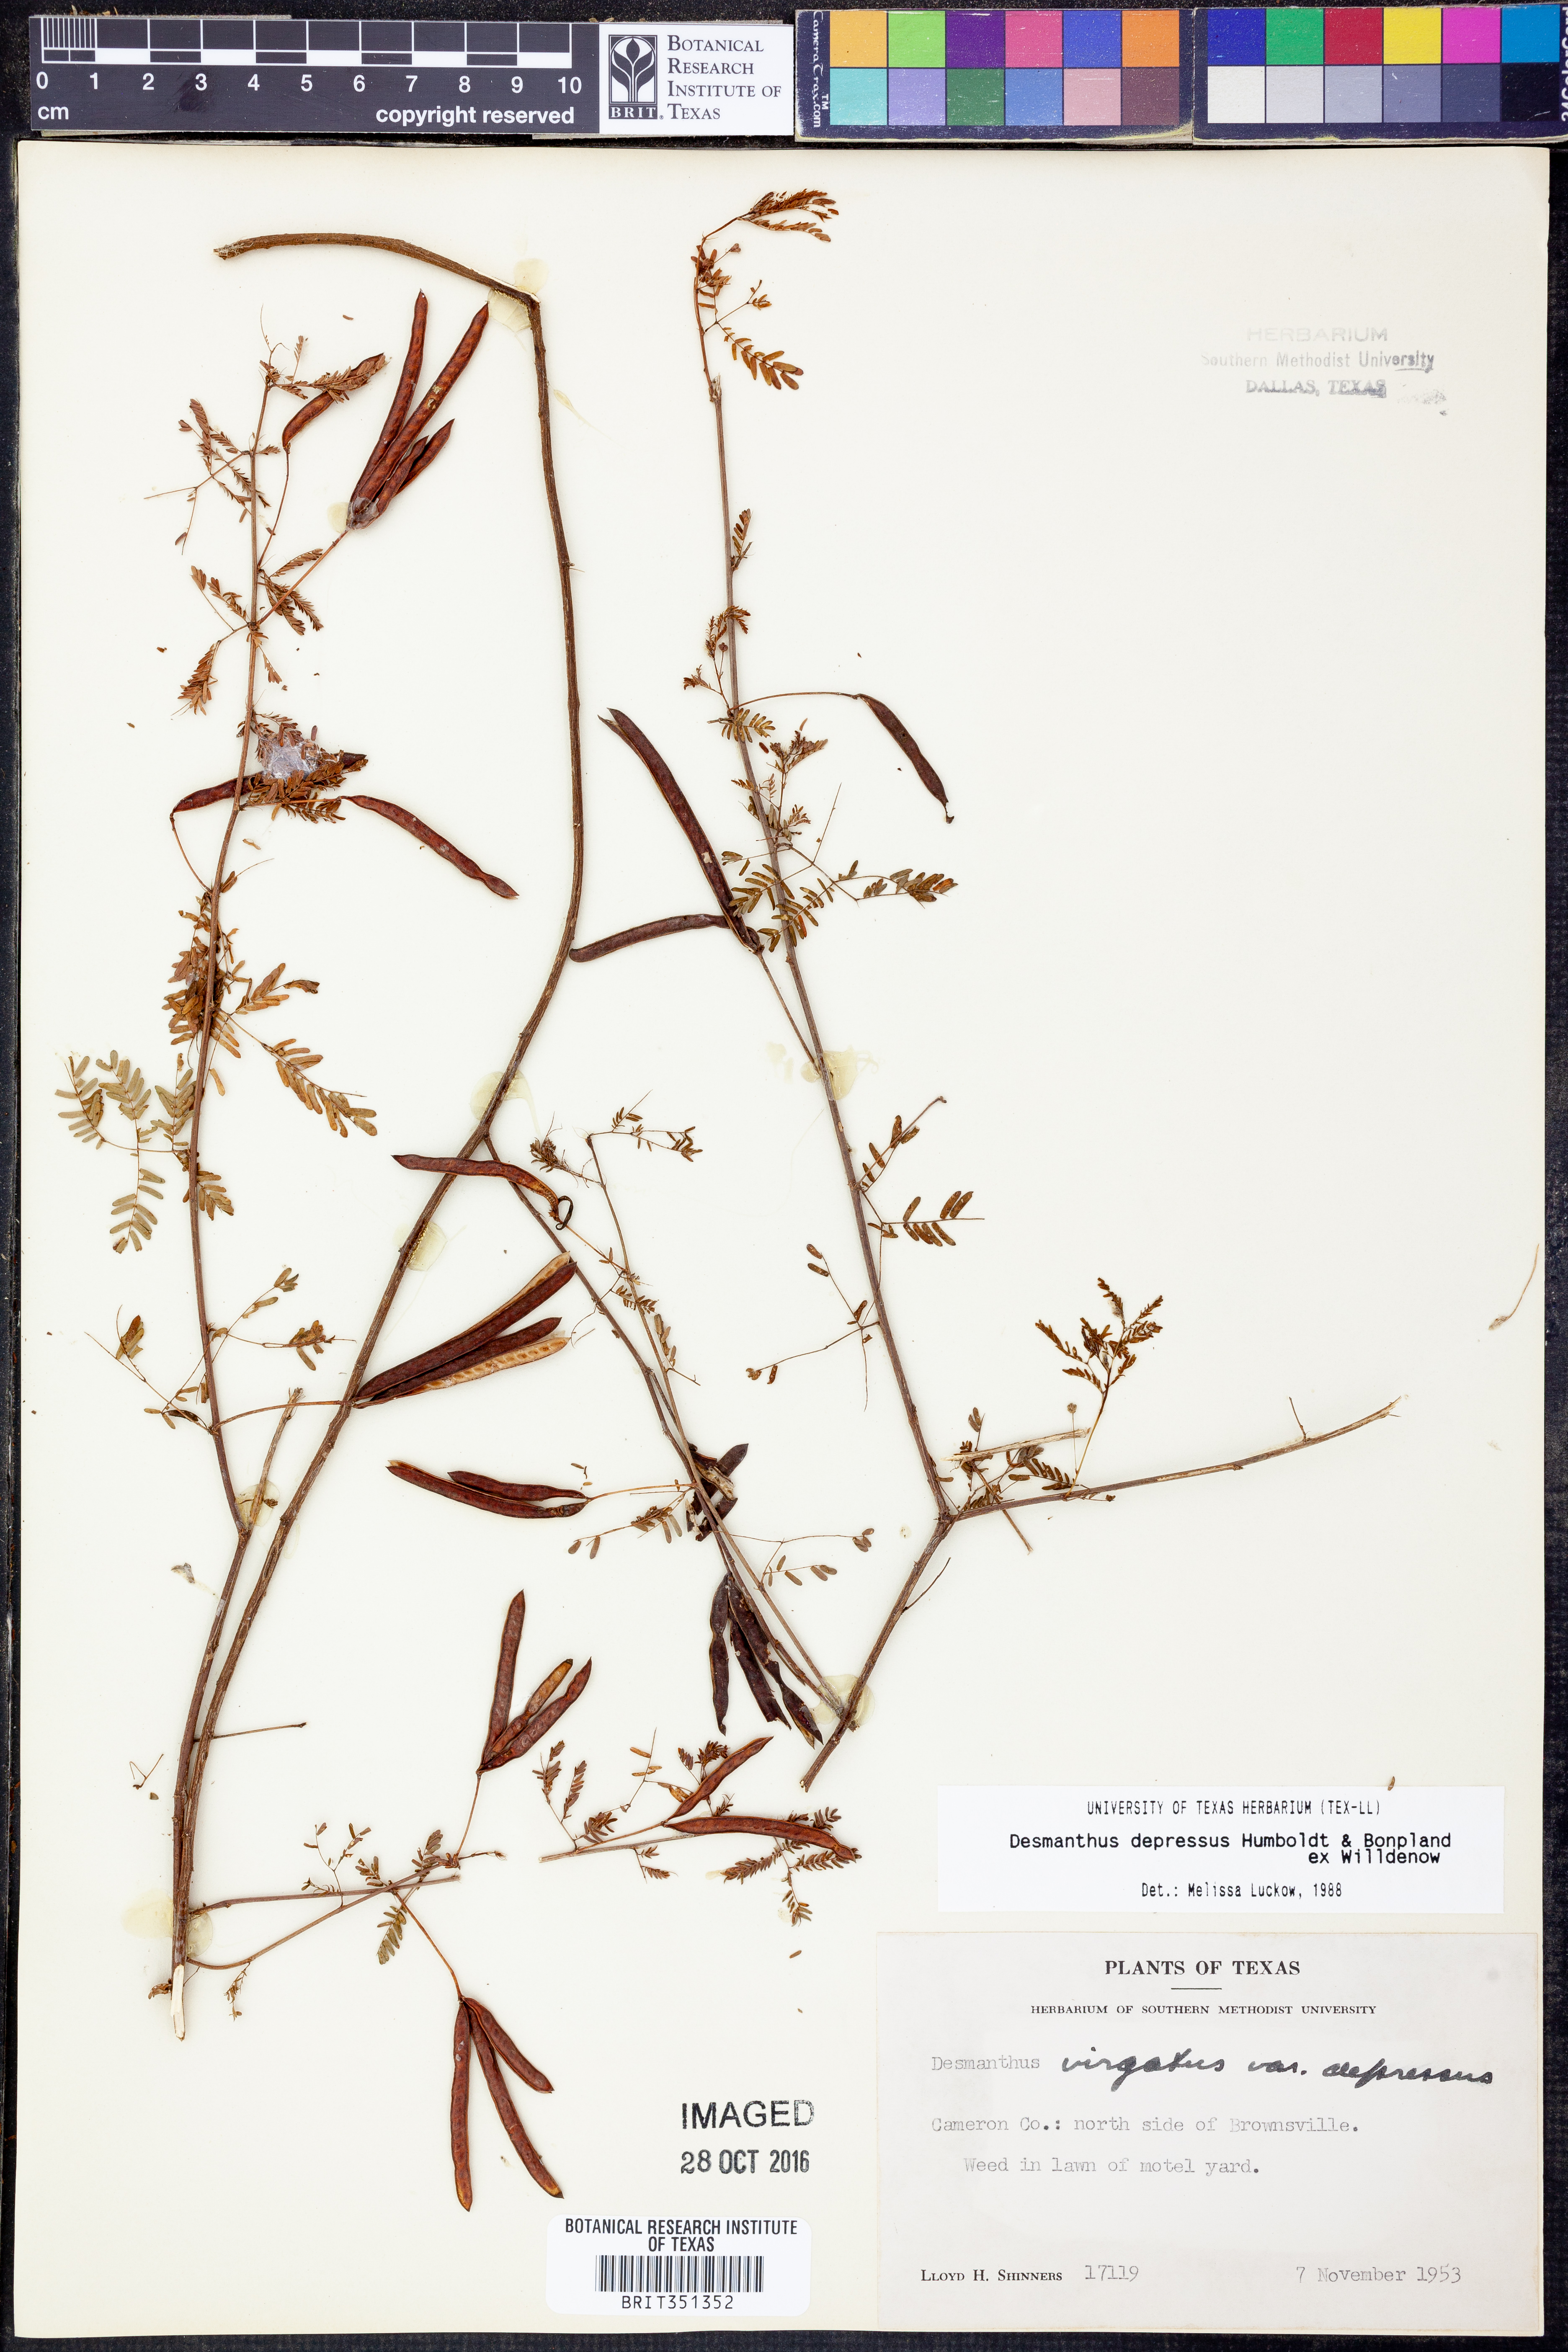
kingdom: Plantae
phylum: Tracheophyta
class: Magnoliopsida
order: Fabales
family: Fabaceae
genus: Desmanthus
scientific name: Desmanthus virgatus
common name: Wild tantan
